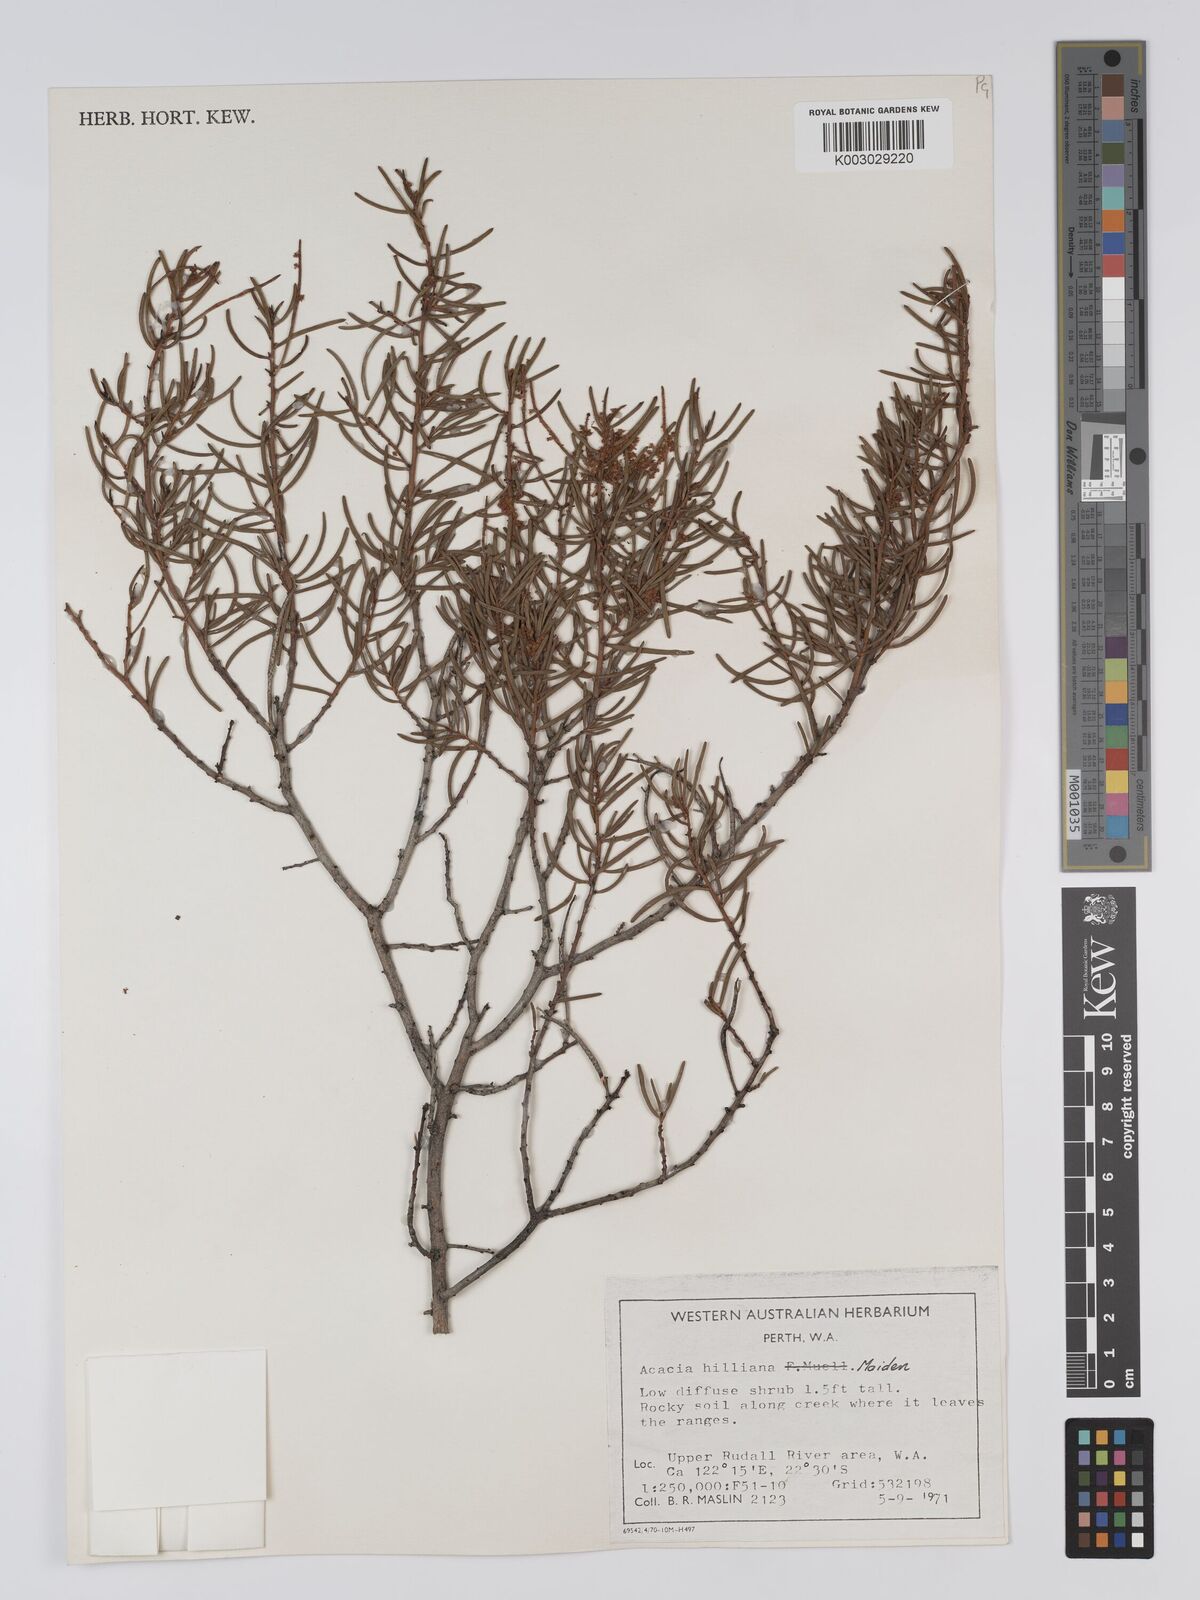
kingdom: Plantae
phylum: Tracheophyta
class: Magnoliopsida
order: Fabales
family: Fabaceae
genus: Acacia
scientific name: Acacia hilliana
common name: Hill's tabletop wattle
